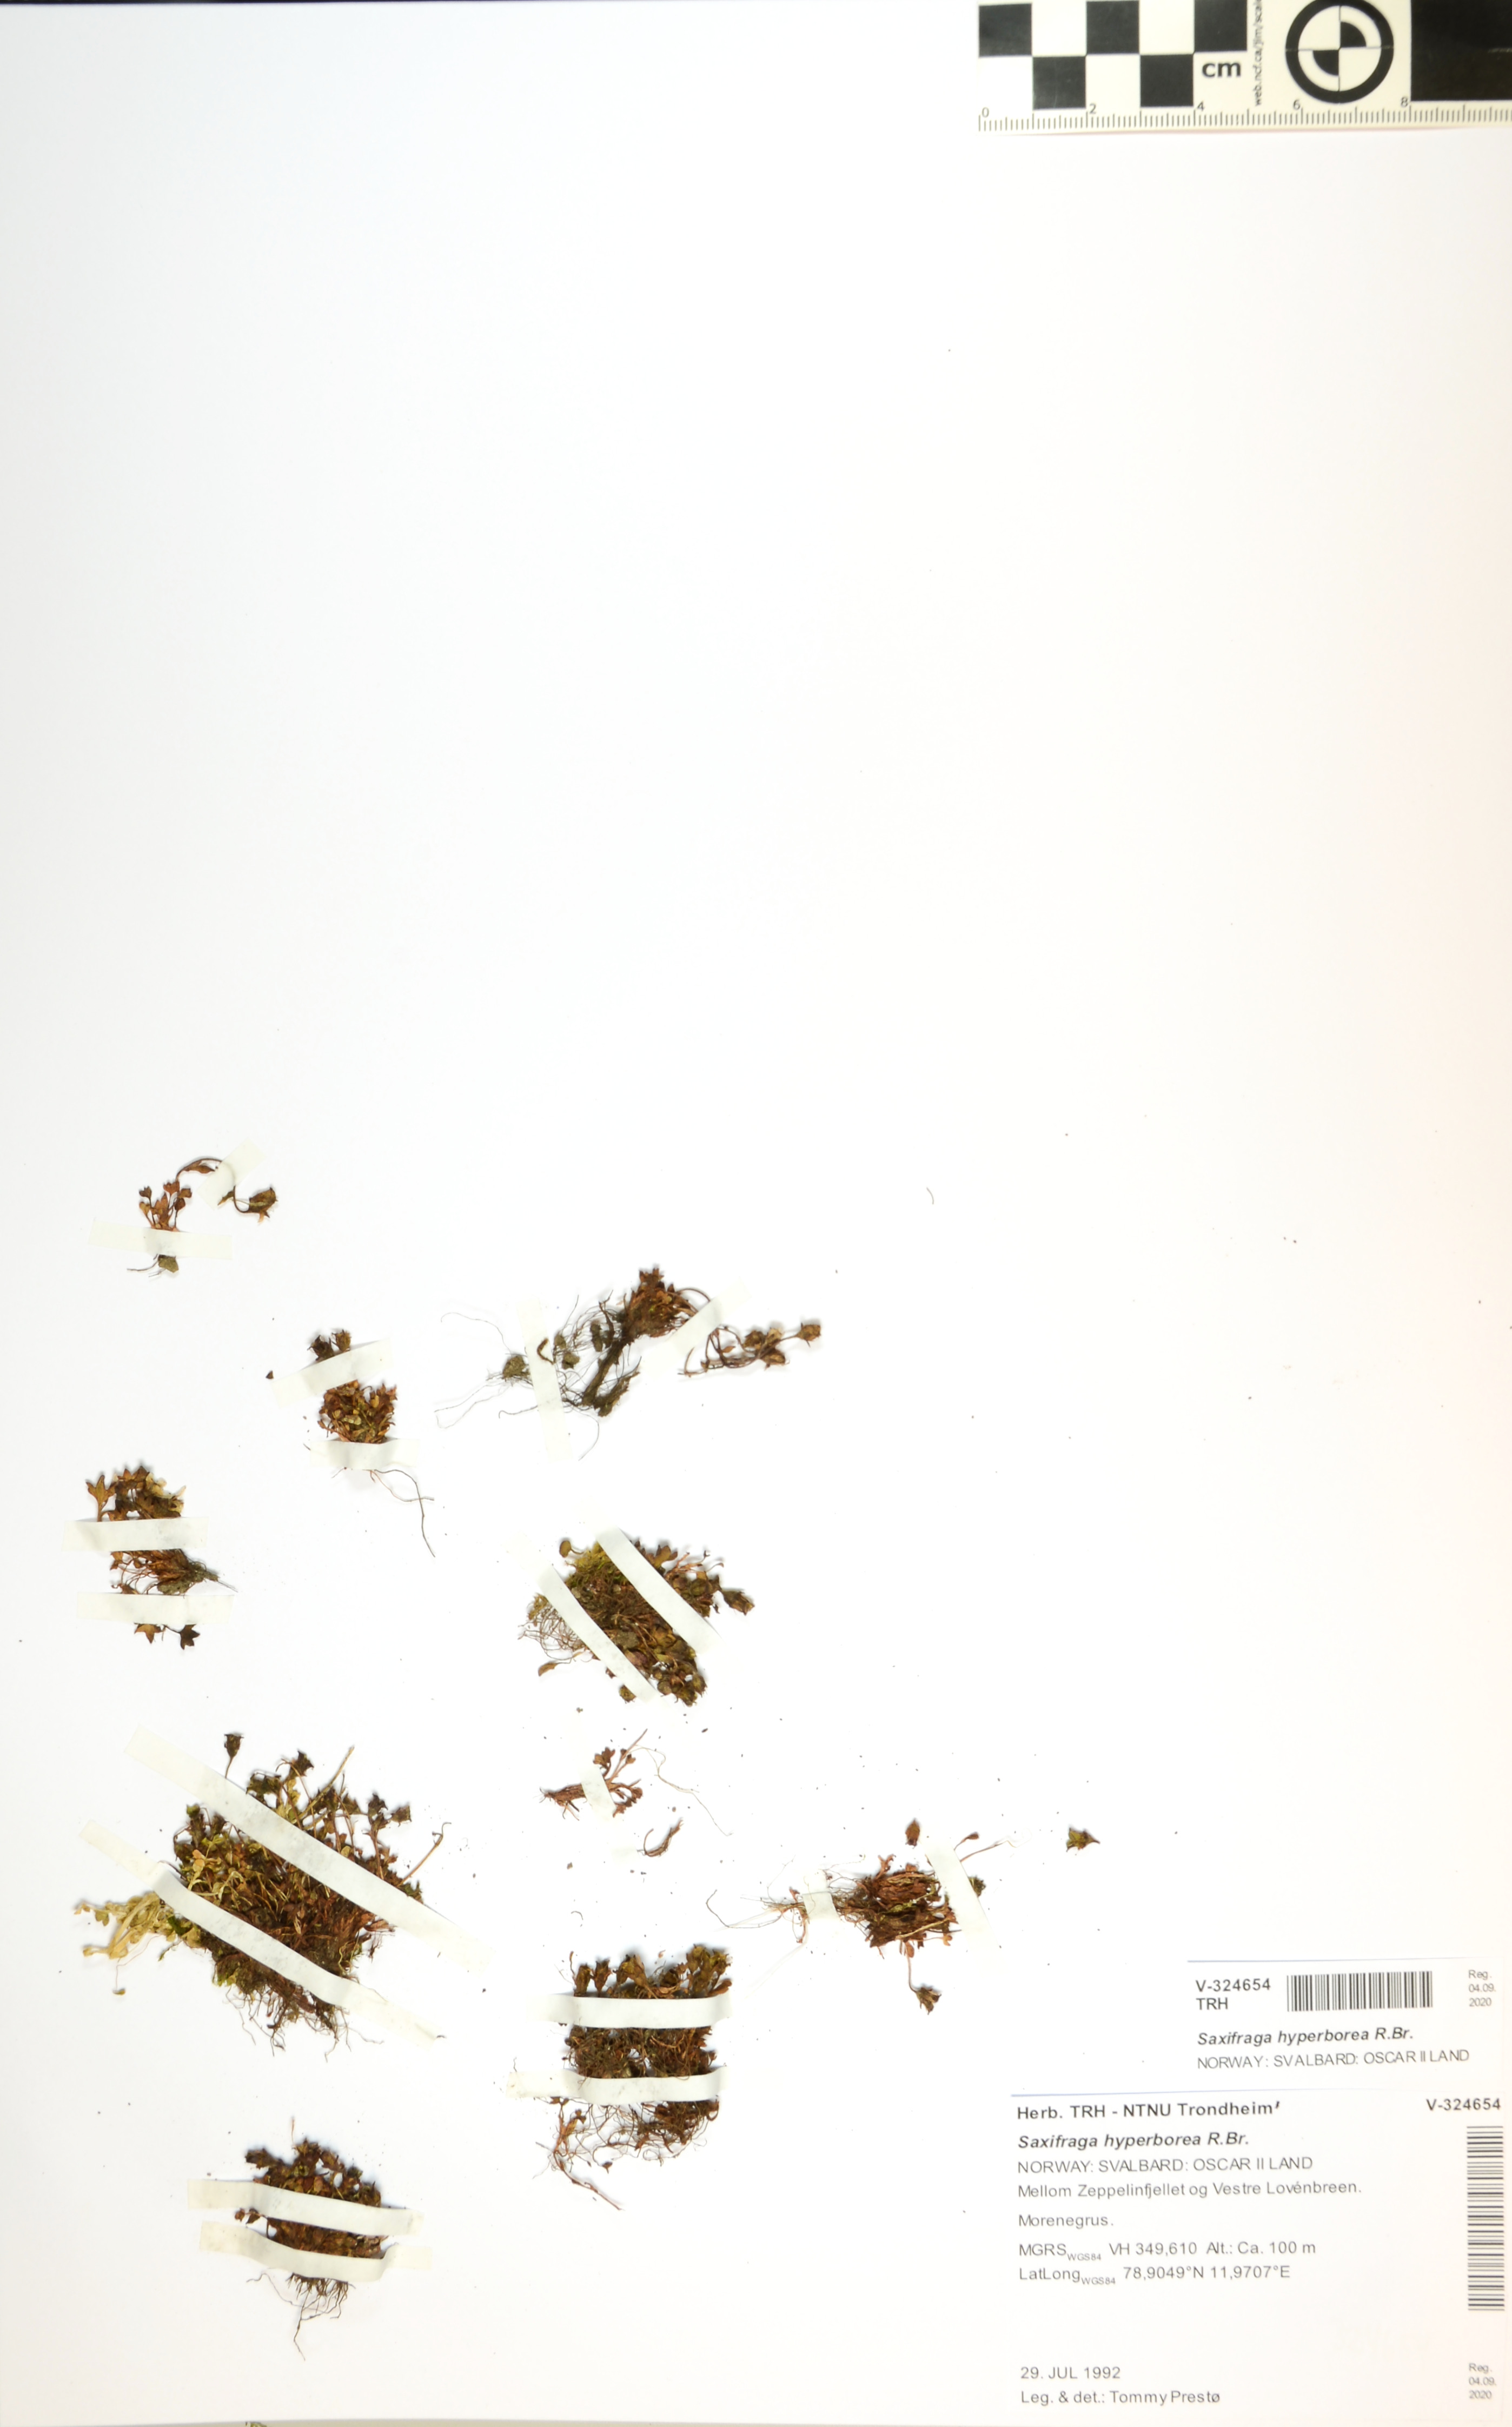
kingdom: Plantae
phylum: Tracheophyta
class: Magnoliopsida
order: Saxifragales
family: Saxifragaceae
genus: Saxifraga
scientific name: Saxifraga hyperborea
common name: Arctic saxifrage
